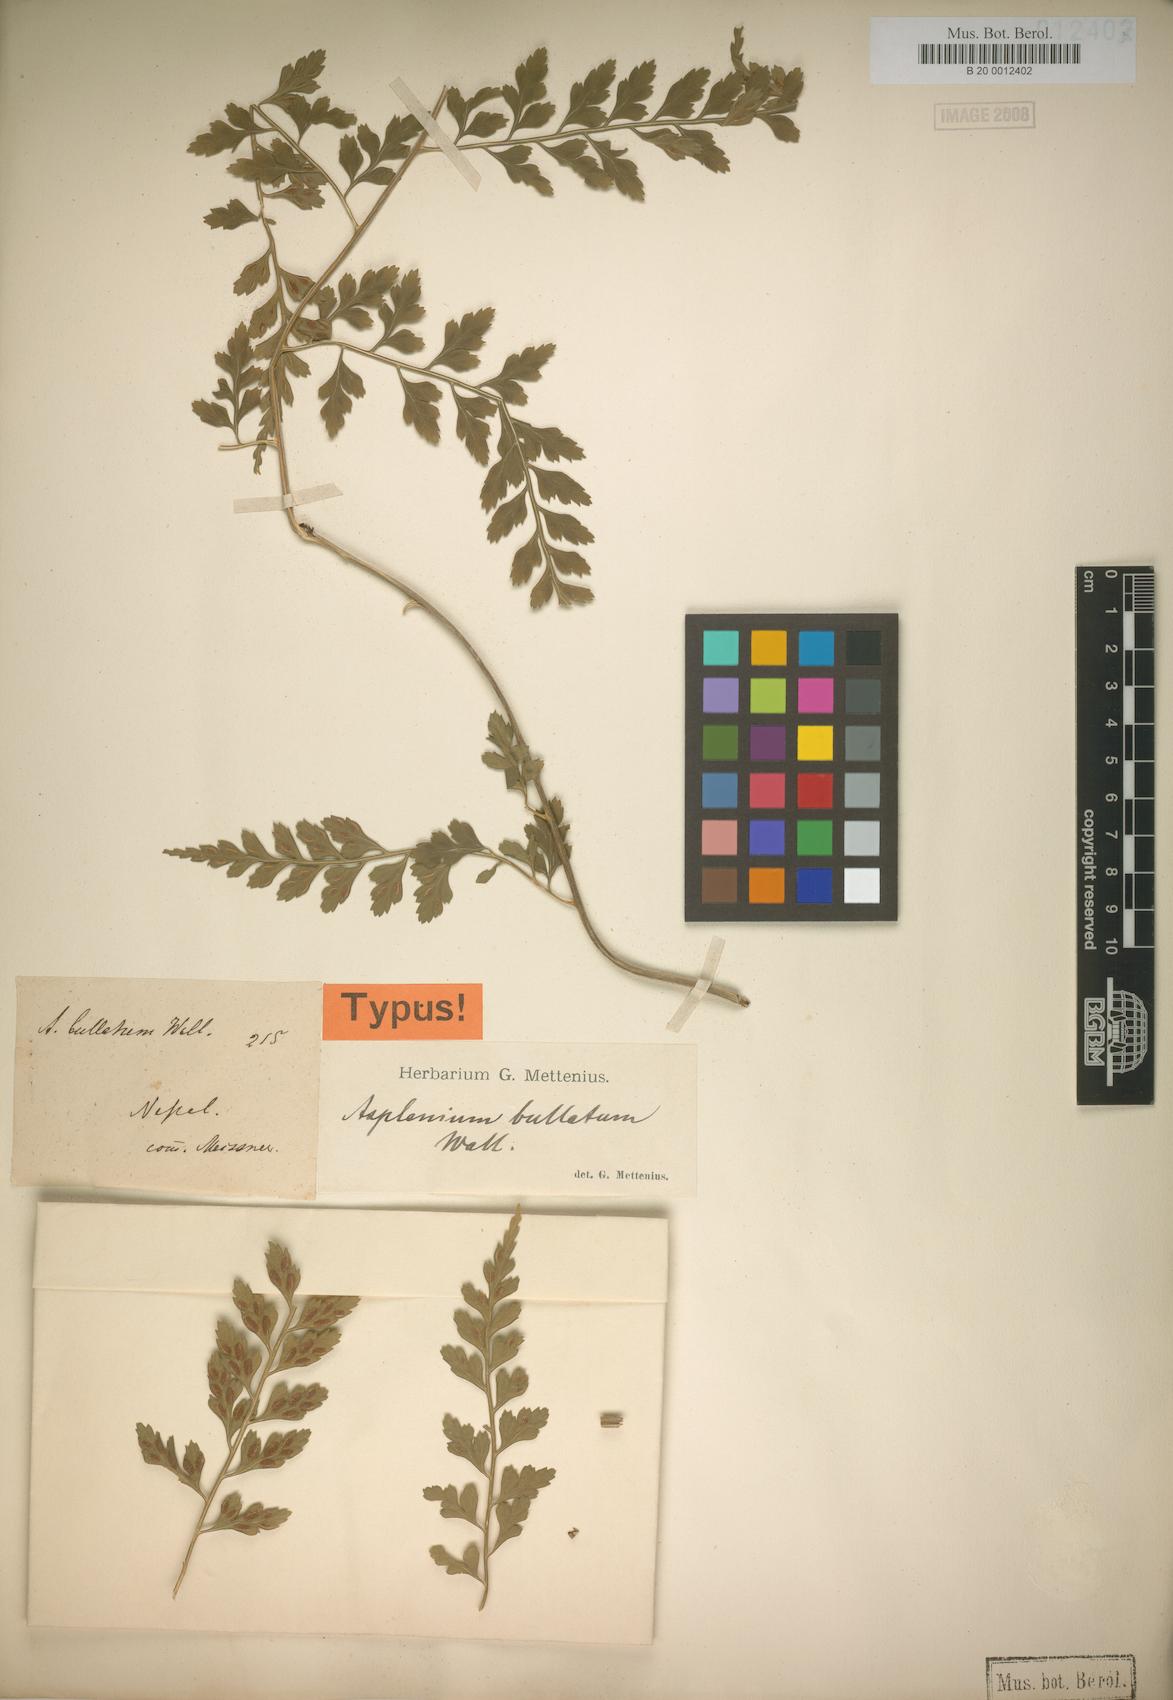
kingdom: Plantae
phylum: Tracheophyta
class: Polypodiopsida
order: Polypodiales
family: Aspleniaceae
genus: Asplenium
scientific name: Asplenium bullatum
